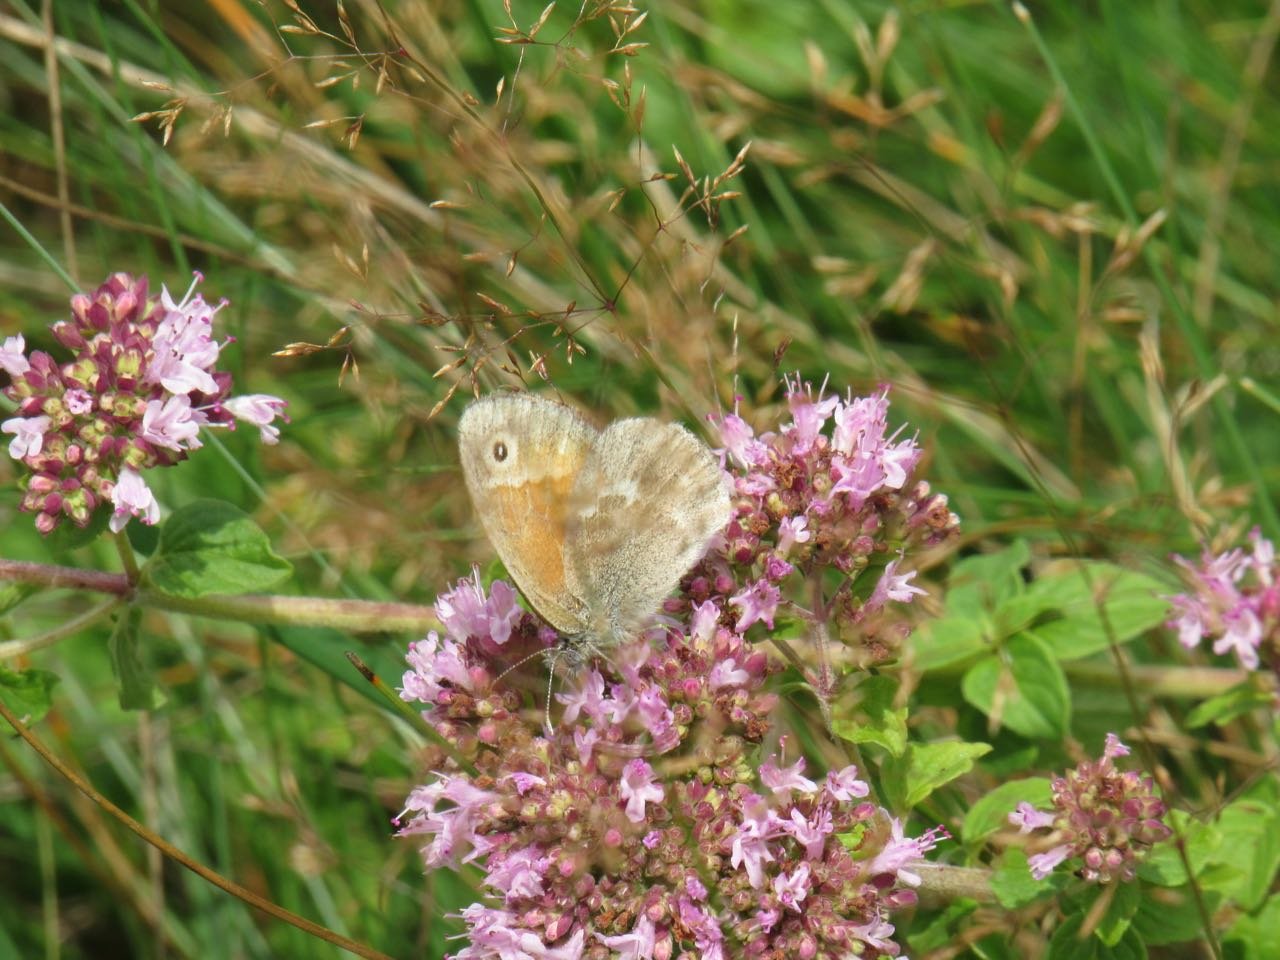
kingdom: Animalia
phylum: Arthropoda
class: Insecta
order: Lepidoptera
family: Nymphalidae
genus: Coenonympha
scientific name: Coenonympha tullia
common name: Large Heath
